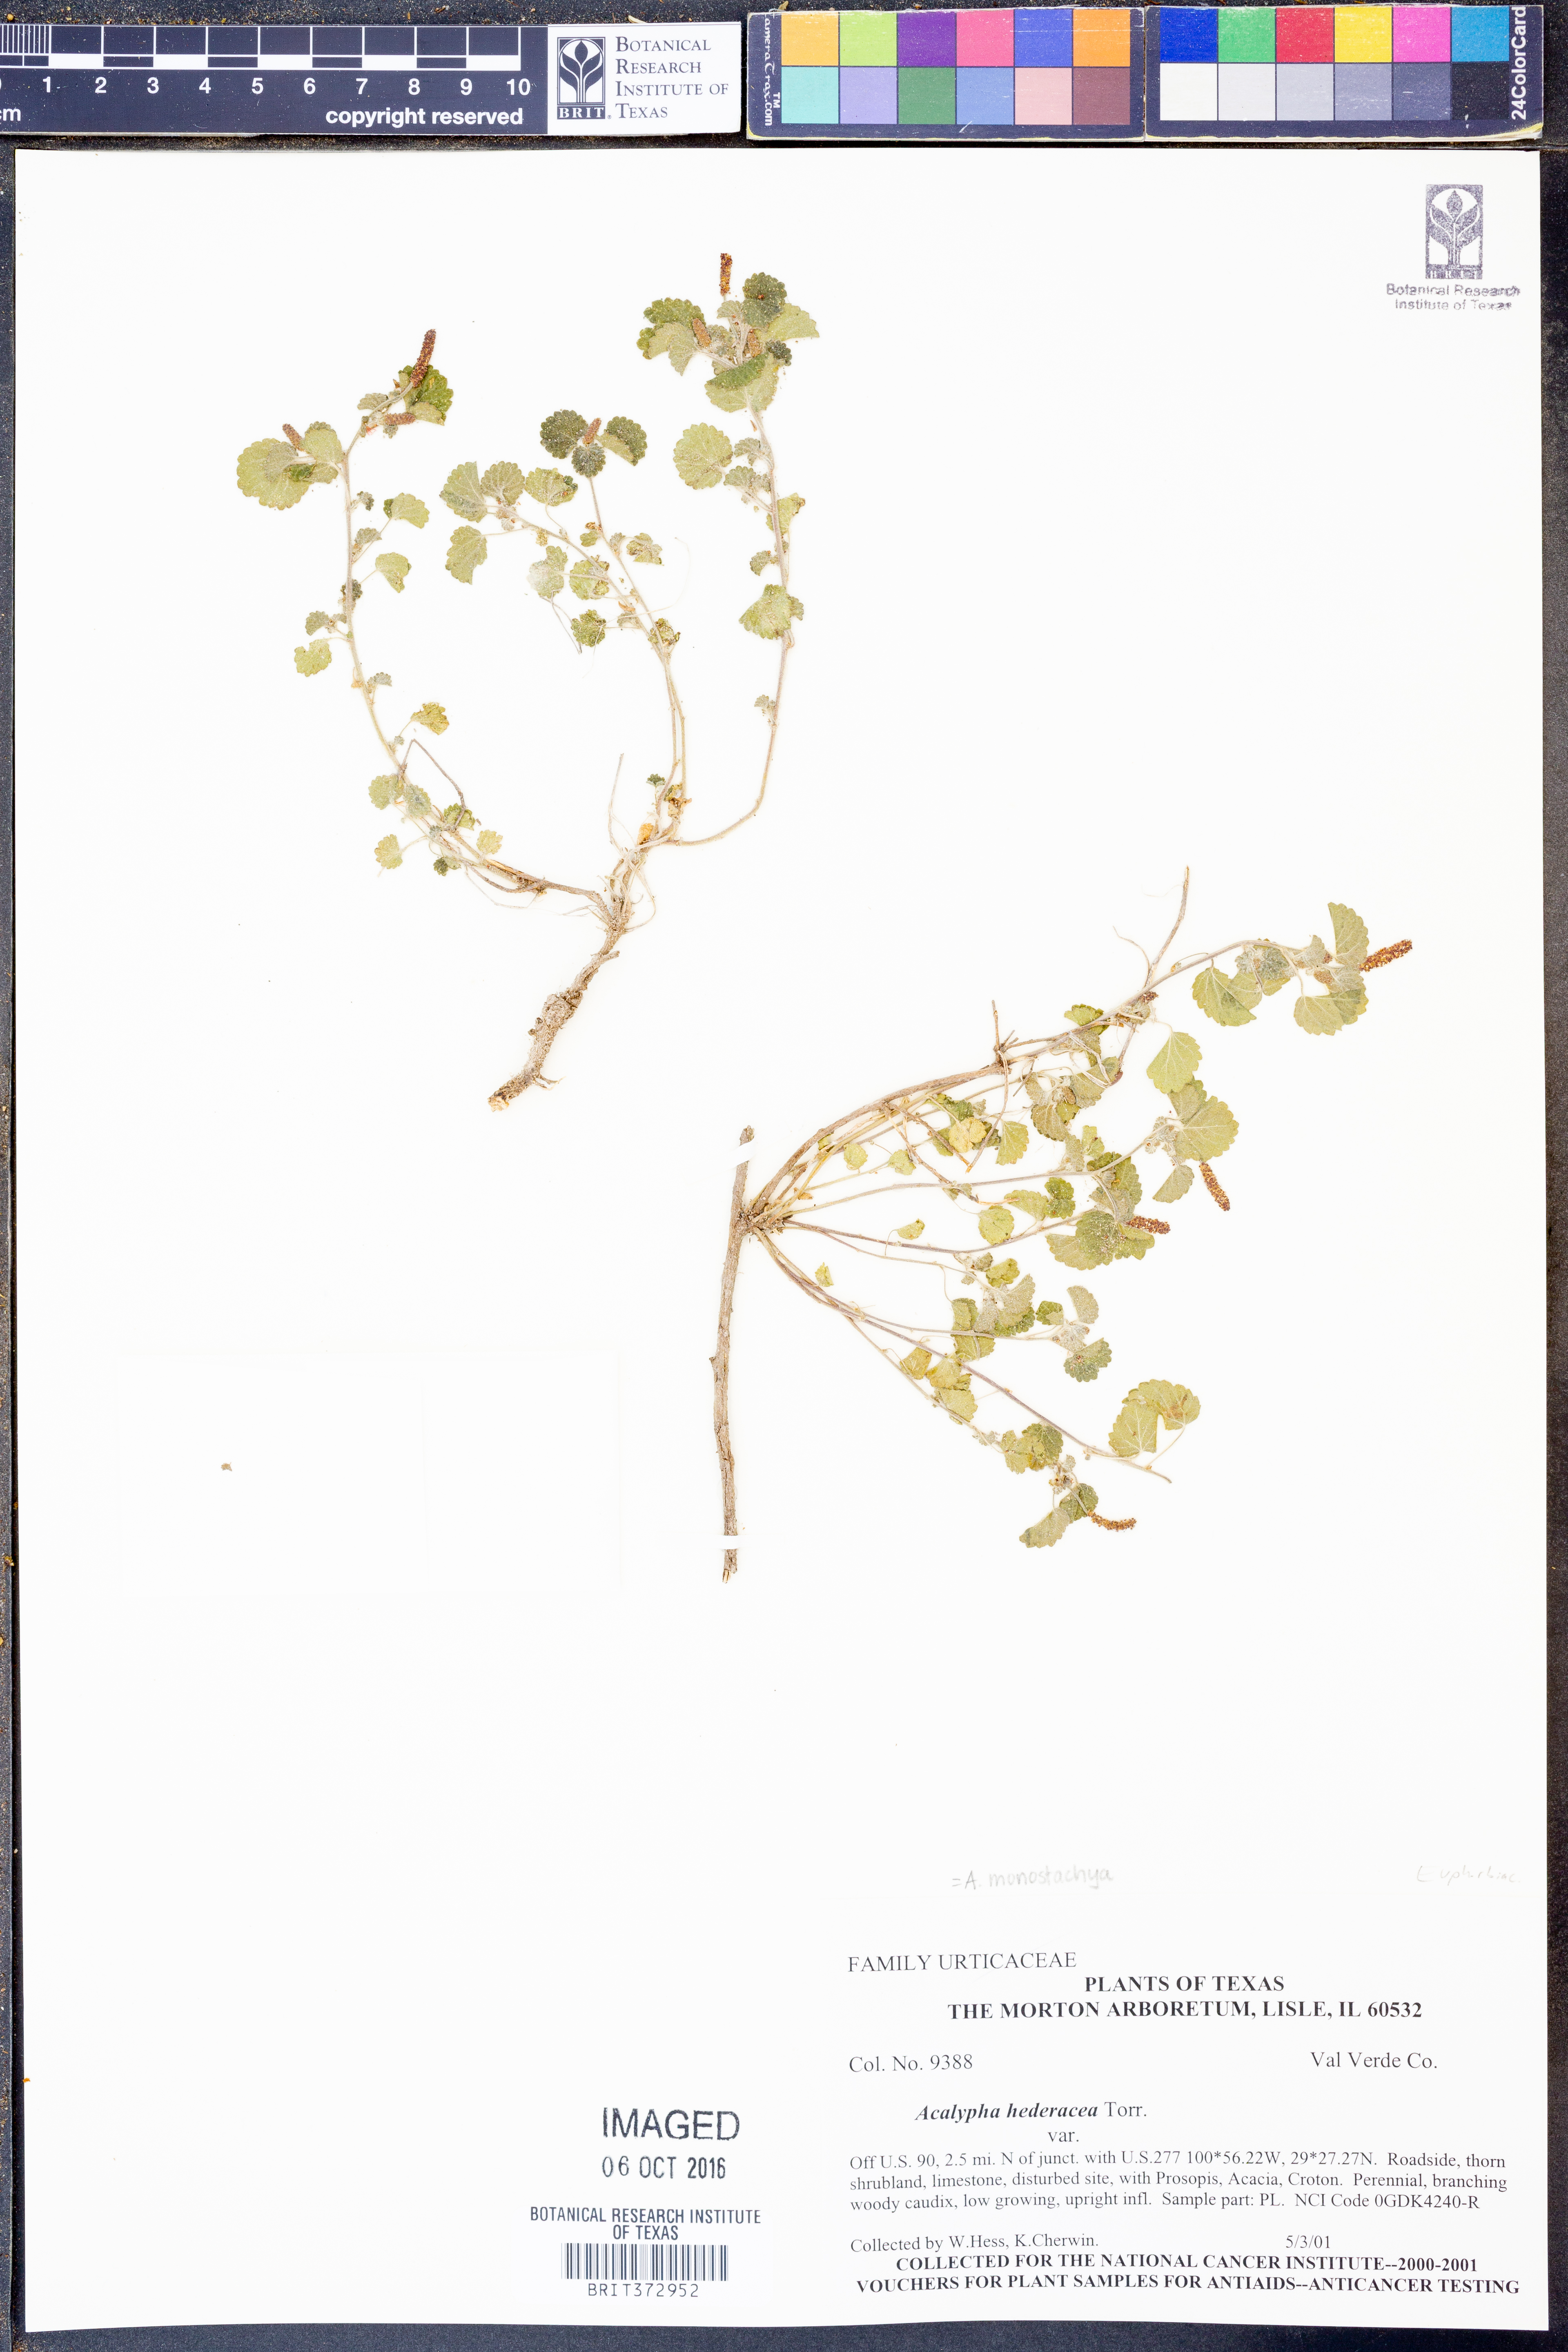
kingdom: Plantae
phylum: Tracheophyta
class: Magnoliopsida
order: Malpighiales
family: Euphorbiaceae
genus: Acalypha
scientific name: Acalypha monostachya
